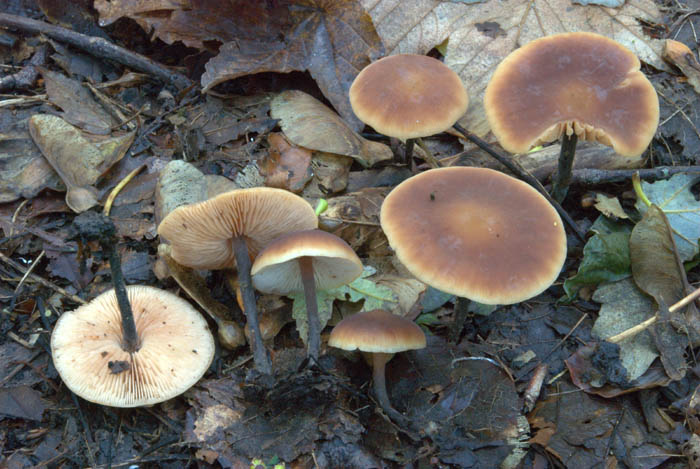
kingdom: Fungi
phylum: Basidiomycota
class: Agaricomycetes
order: Agaricales
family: Macrocystidiaceae
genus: Macrocystidia
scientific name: Macrocystidia cucumis
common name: agurkehat
